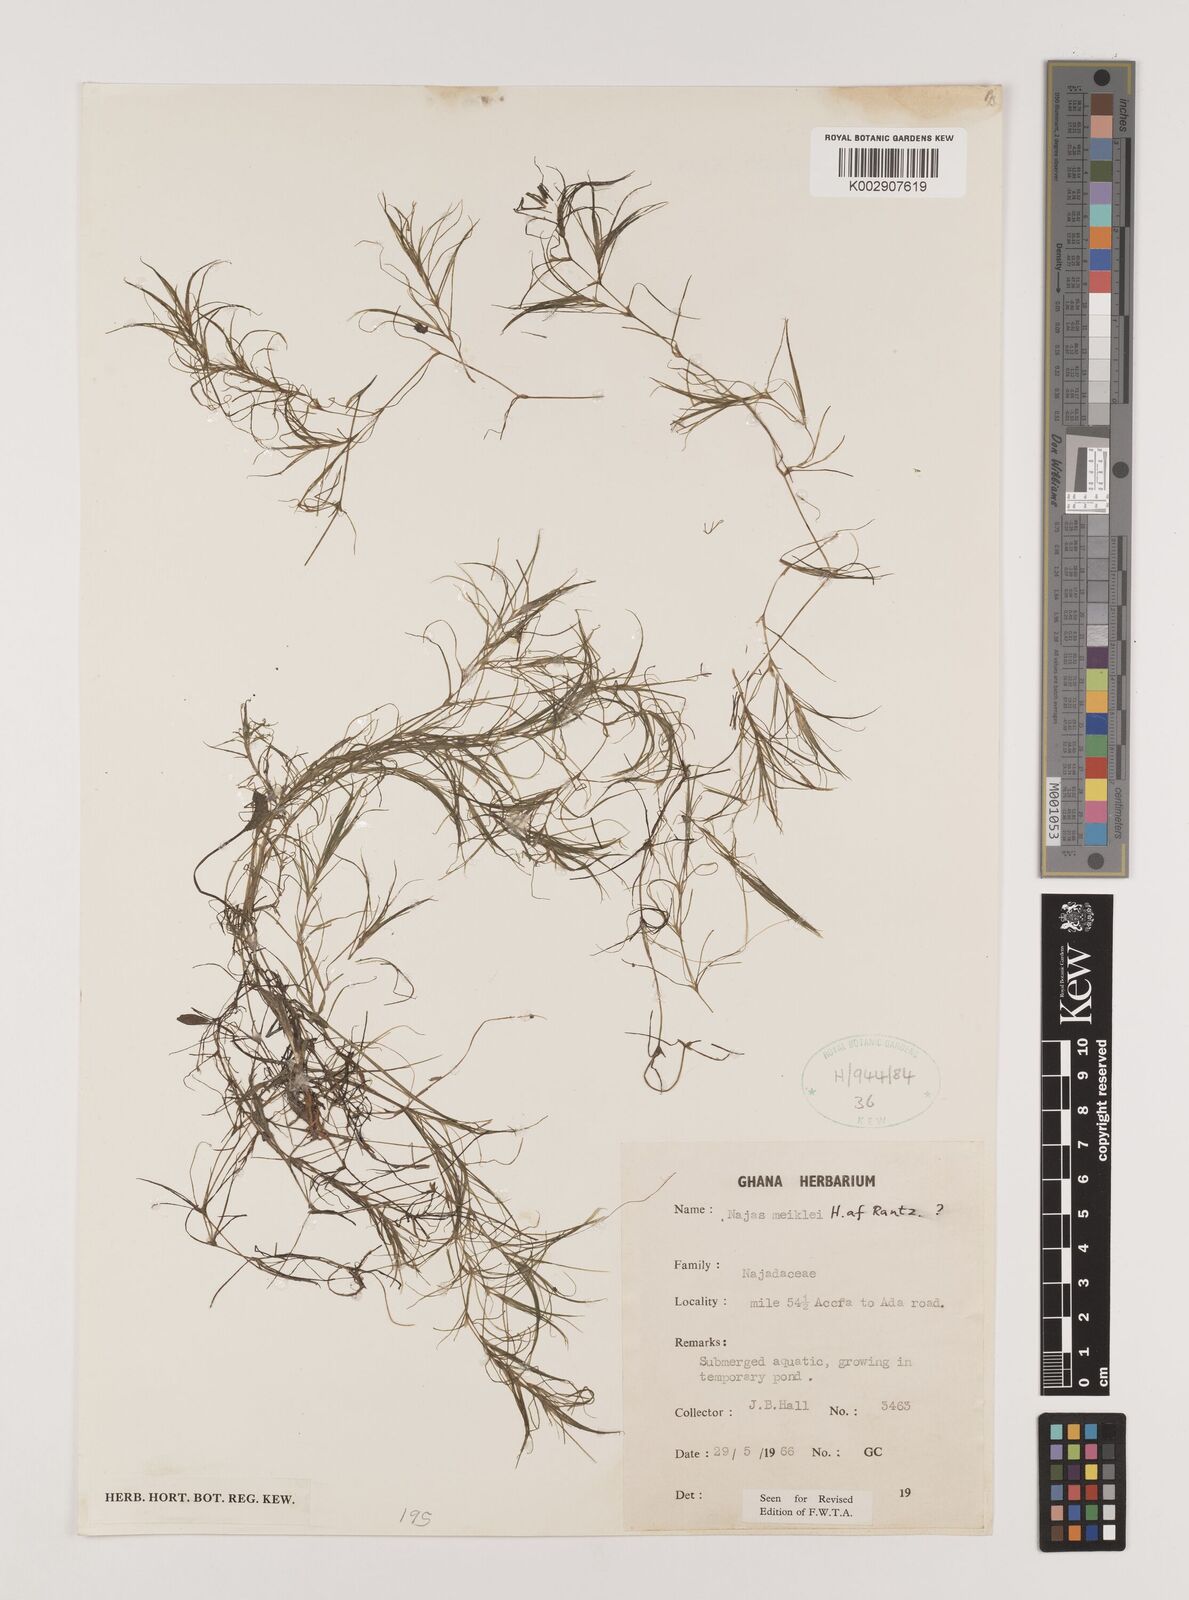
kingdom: Plantae
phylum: Tracheophyta
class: Liliopsida
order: Alismatales
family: Hydrocharitaceae
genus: Najas
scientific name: Najas testui
